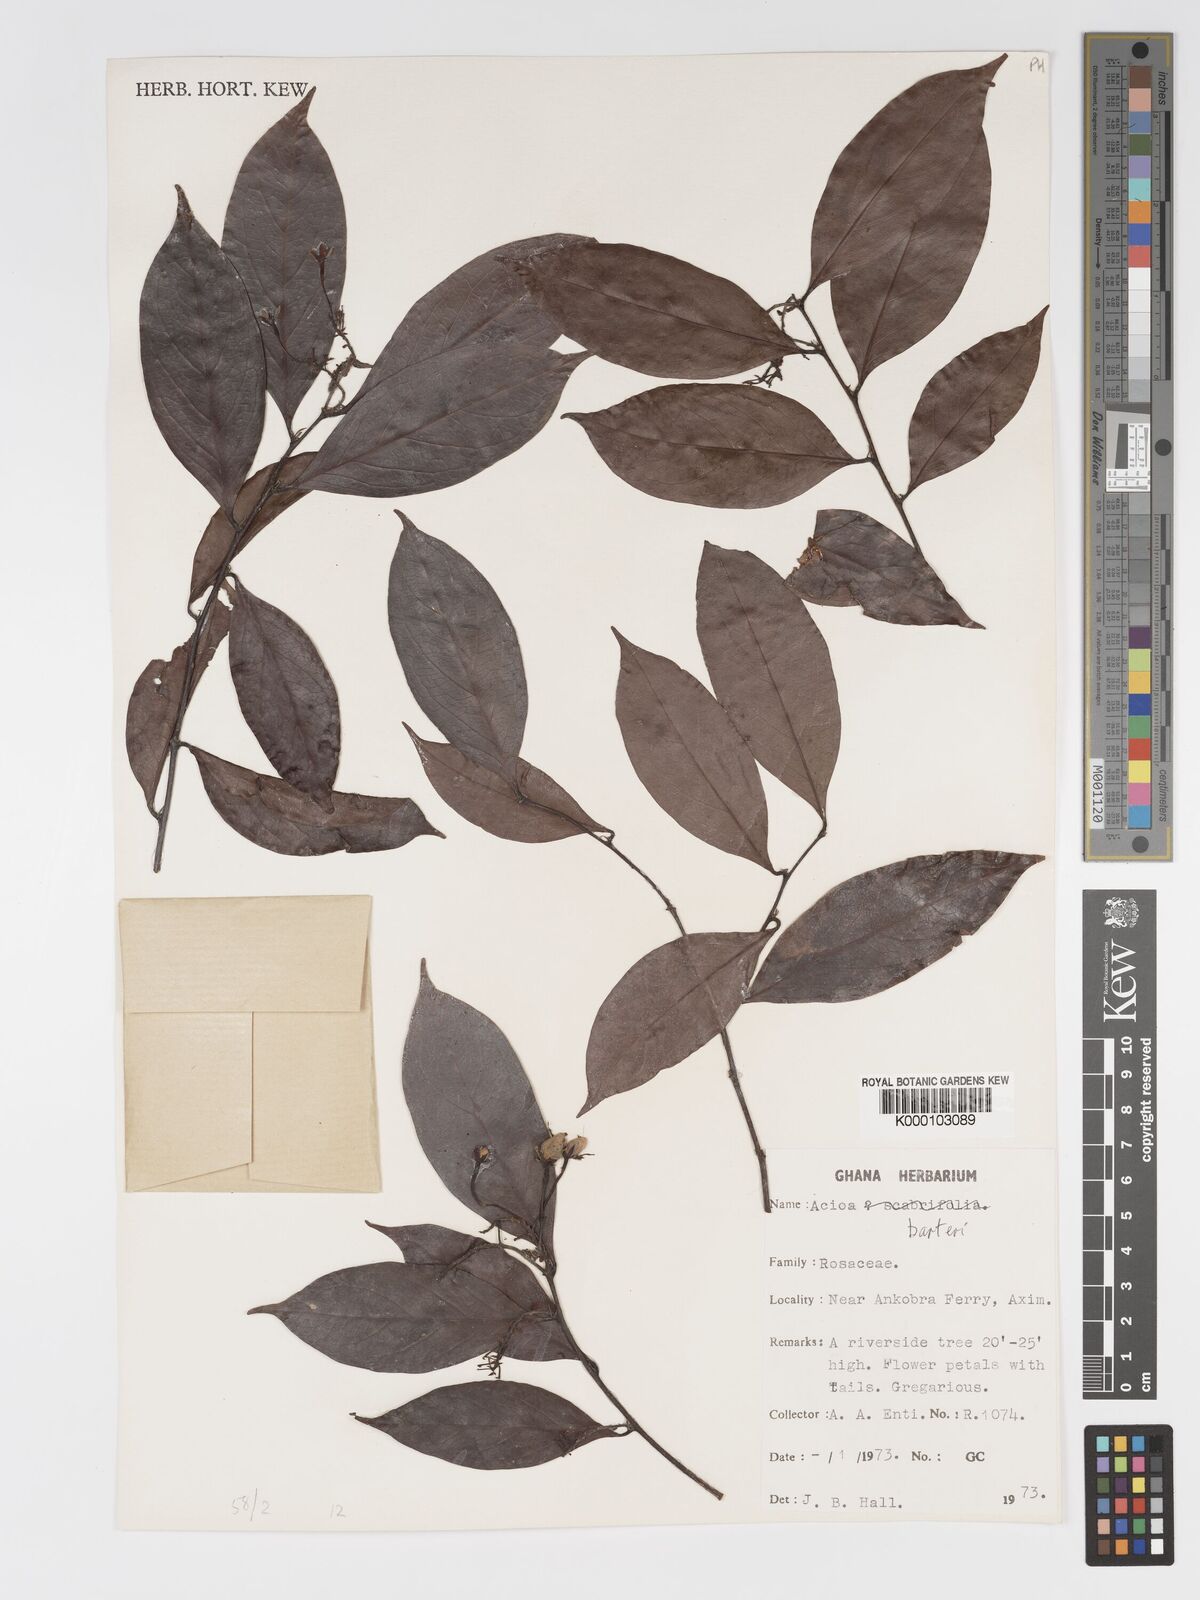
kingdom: Plantae
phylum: Tracheophyta
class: Magnoliopsida
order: Malpighiales
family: Chrysobalanaceae
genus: Dactyladenia
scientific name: Dactyladenia barteri
